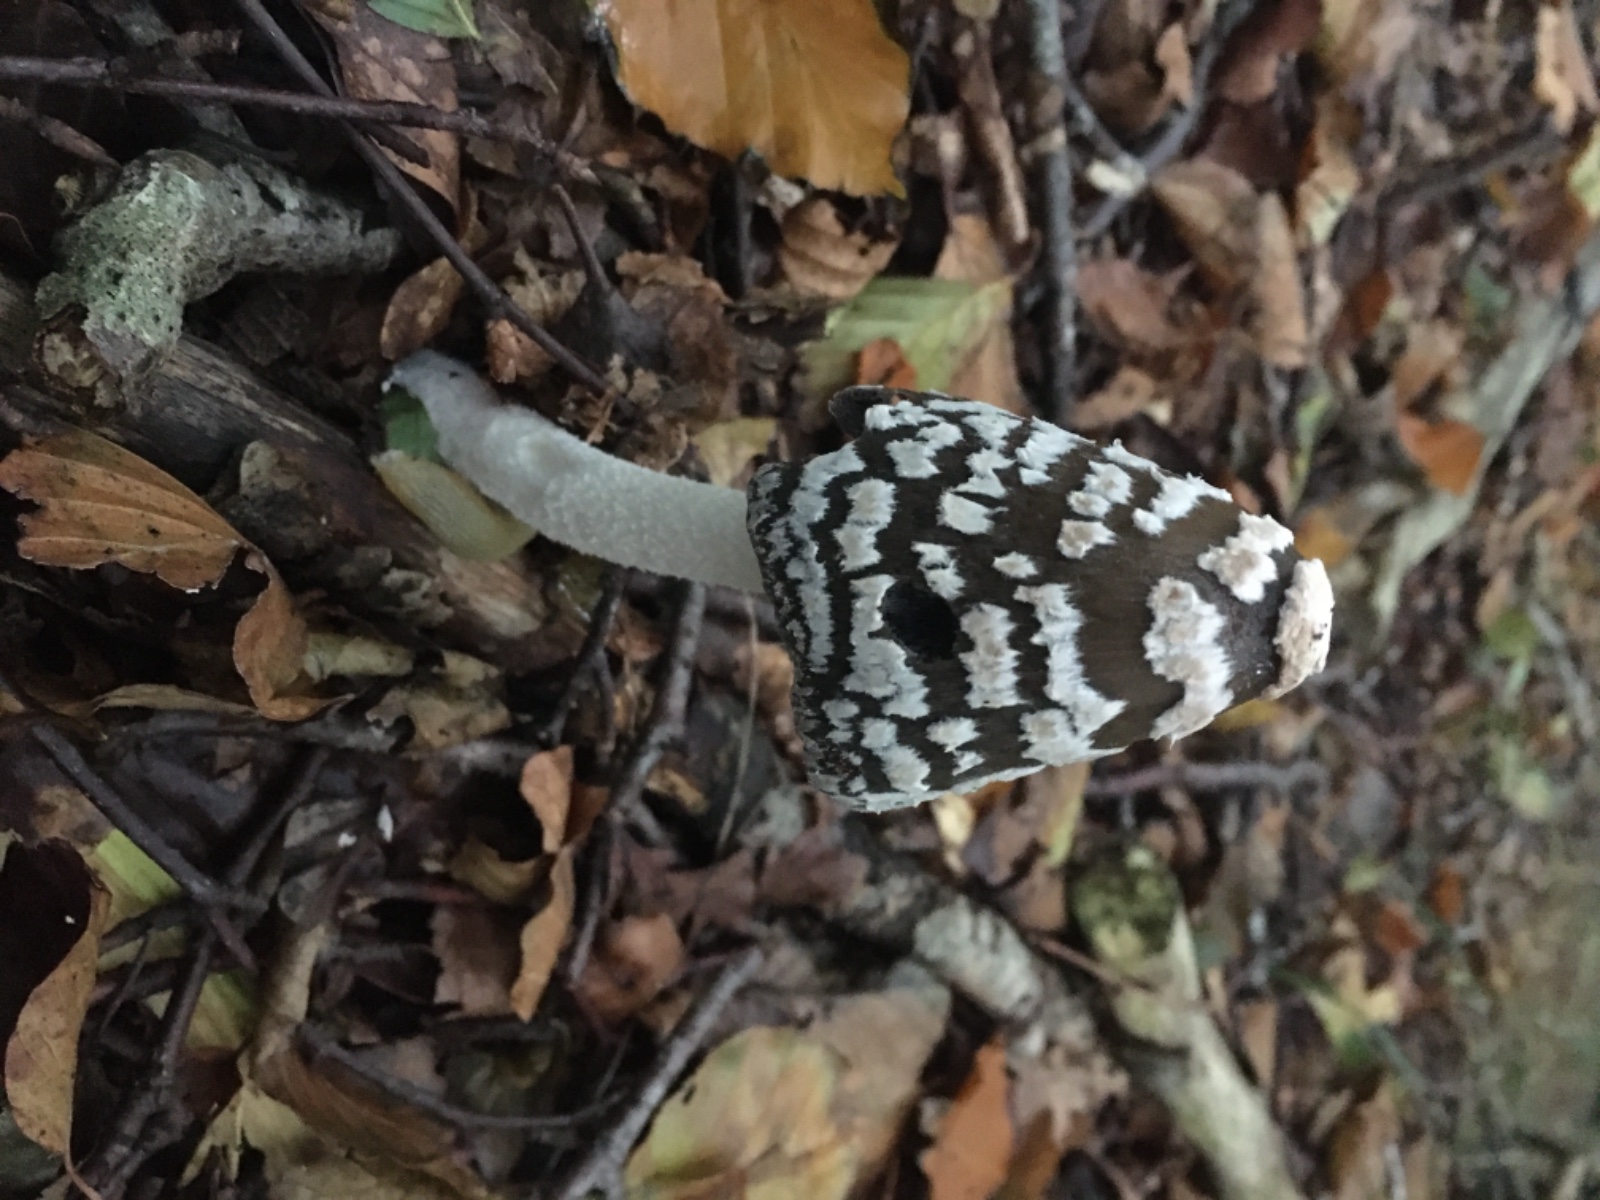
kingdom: Fungi
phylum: Basidiomycota
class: Agaricomycetes
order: Agaricales
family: Psathyrellaceae
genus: Coprinopsis
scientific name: Coprinopsis picacea
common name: skade-blækhat
